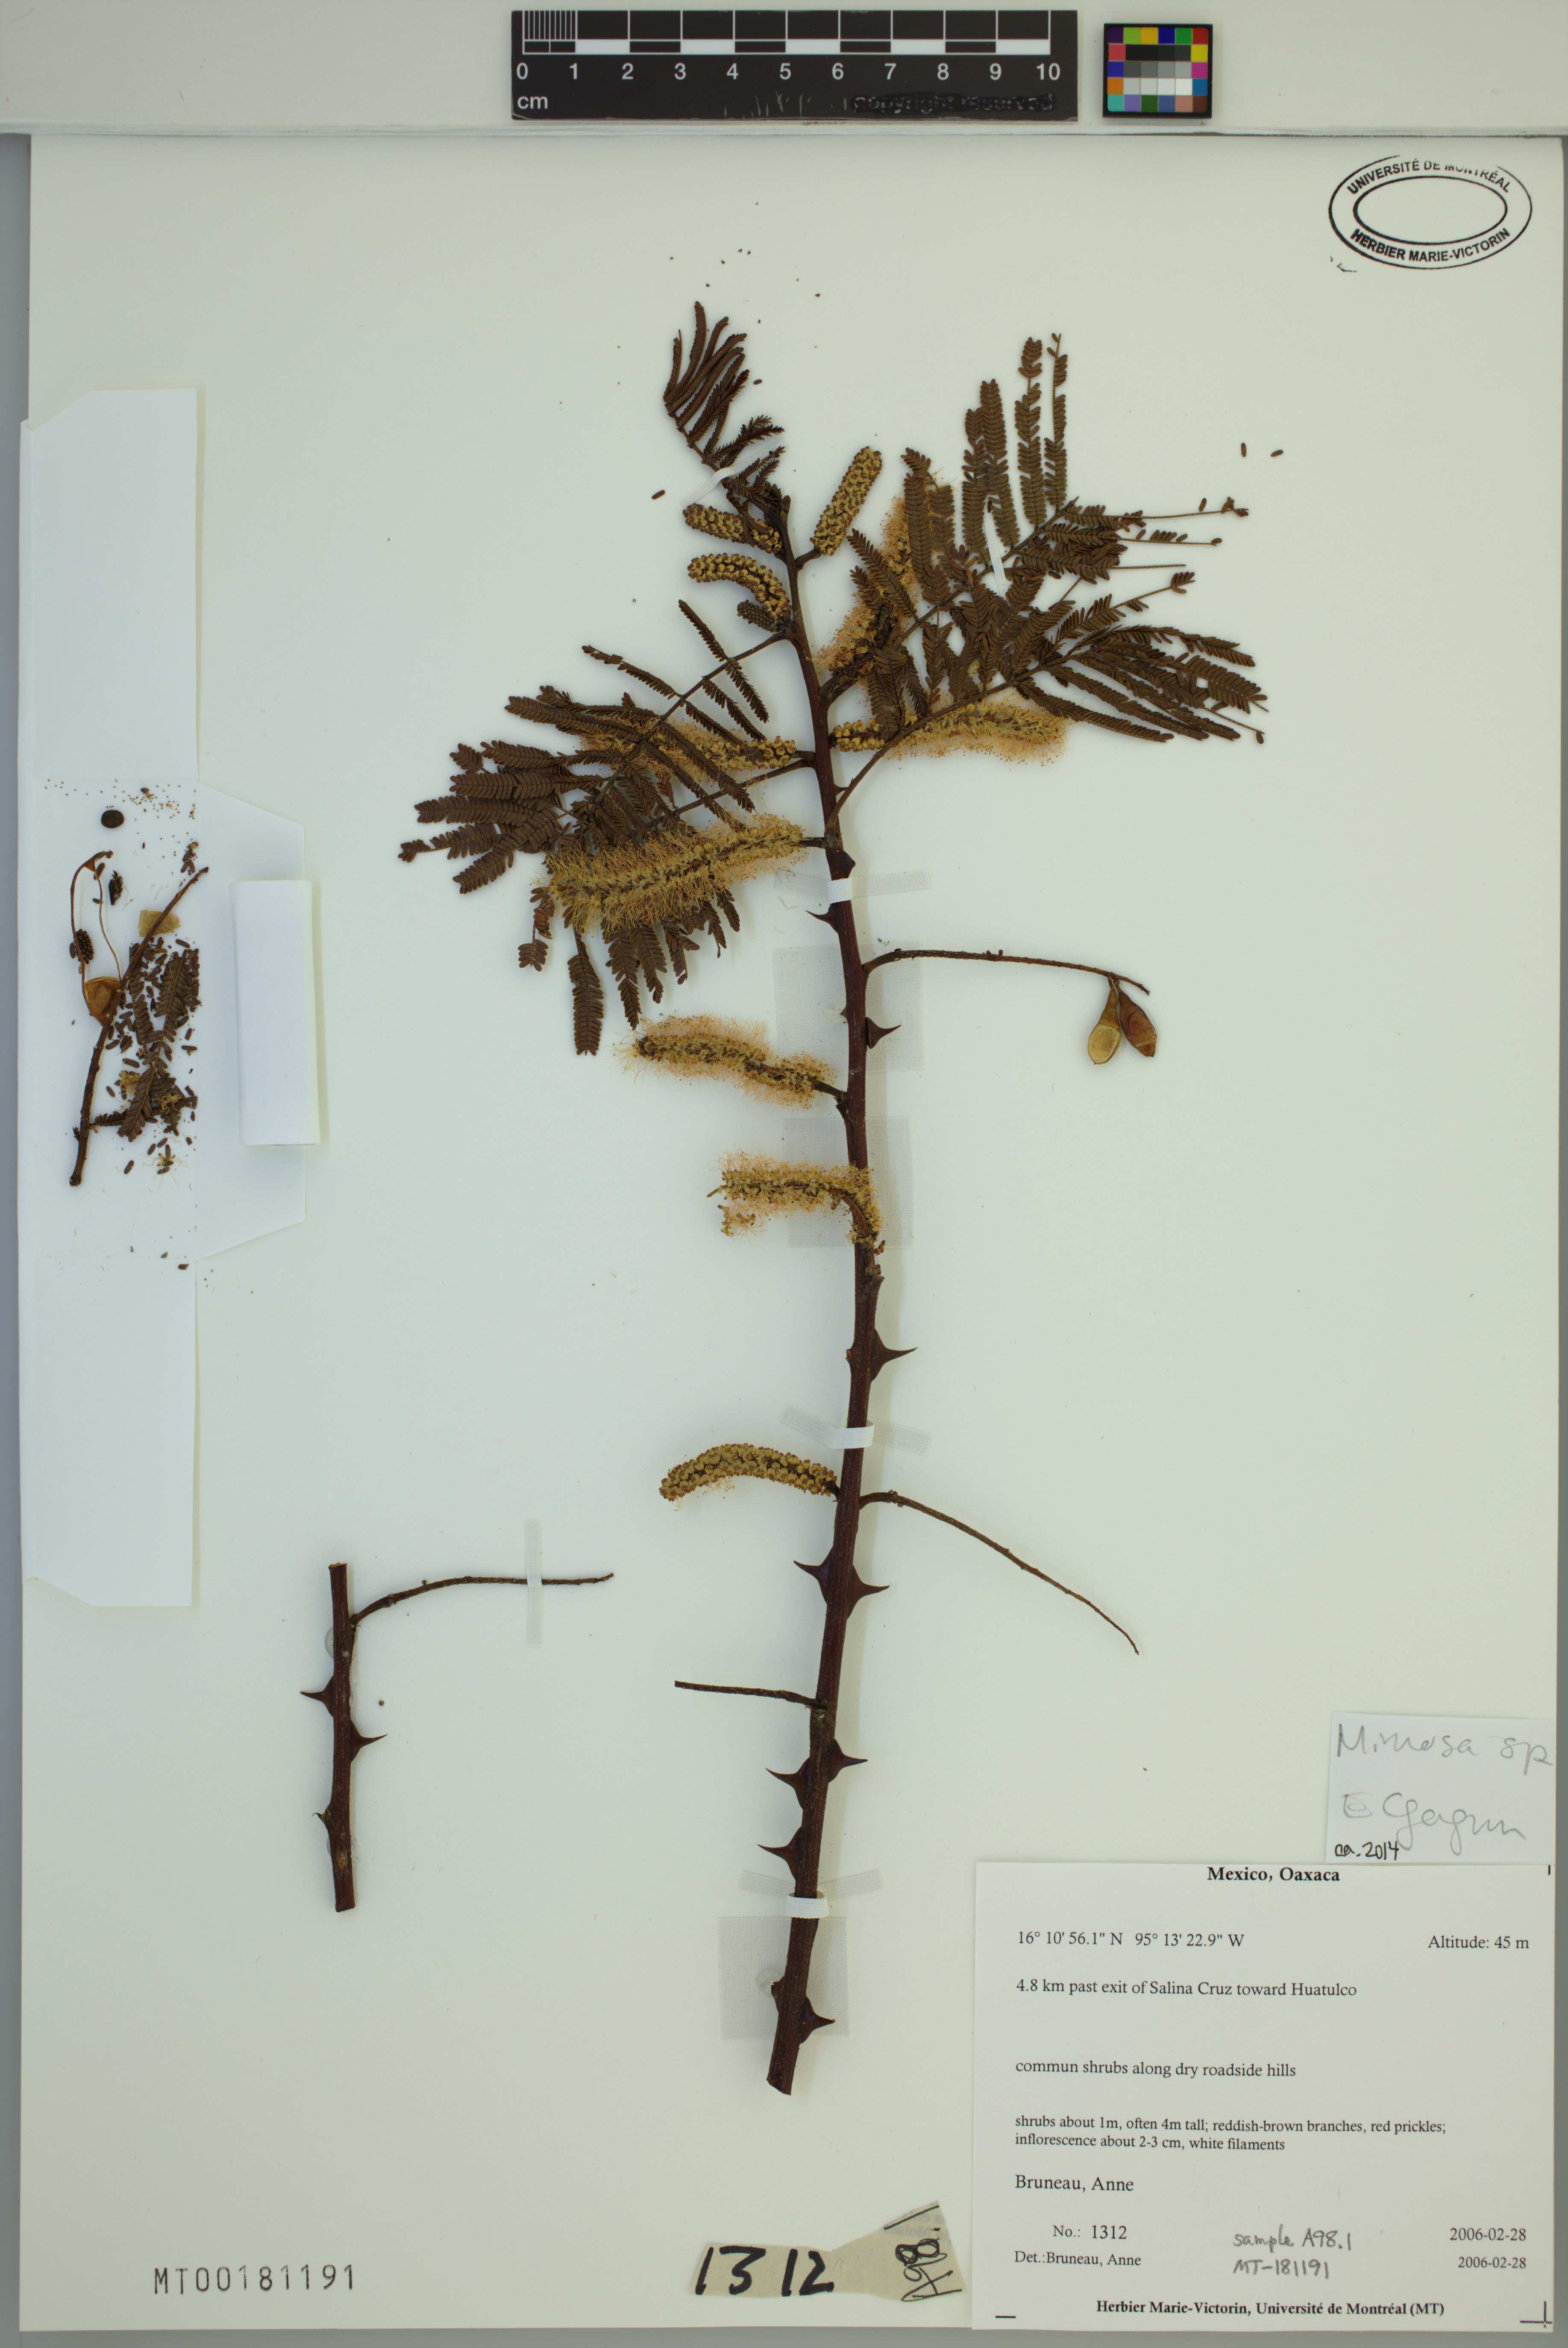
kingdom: Plantae
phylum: Tracheophyta
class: Magnoliopsida
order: Fabales
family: Fabaceae
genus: Mimosa
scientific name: Mimosa
